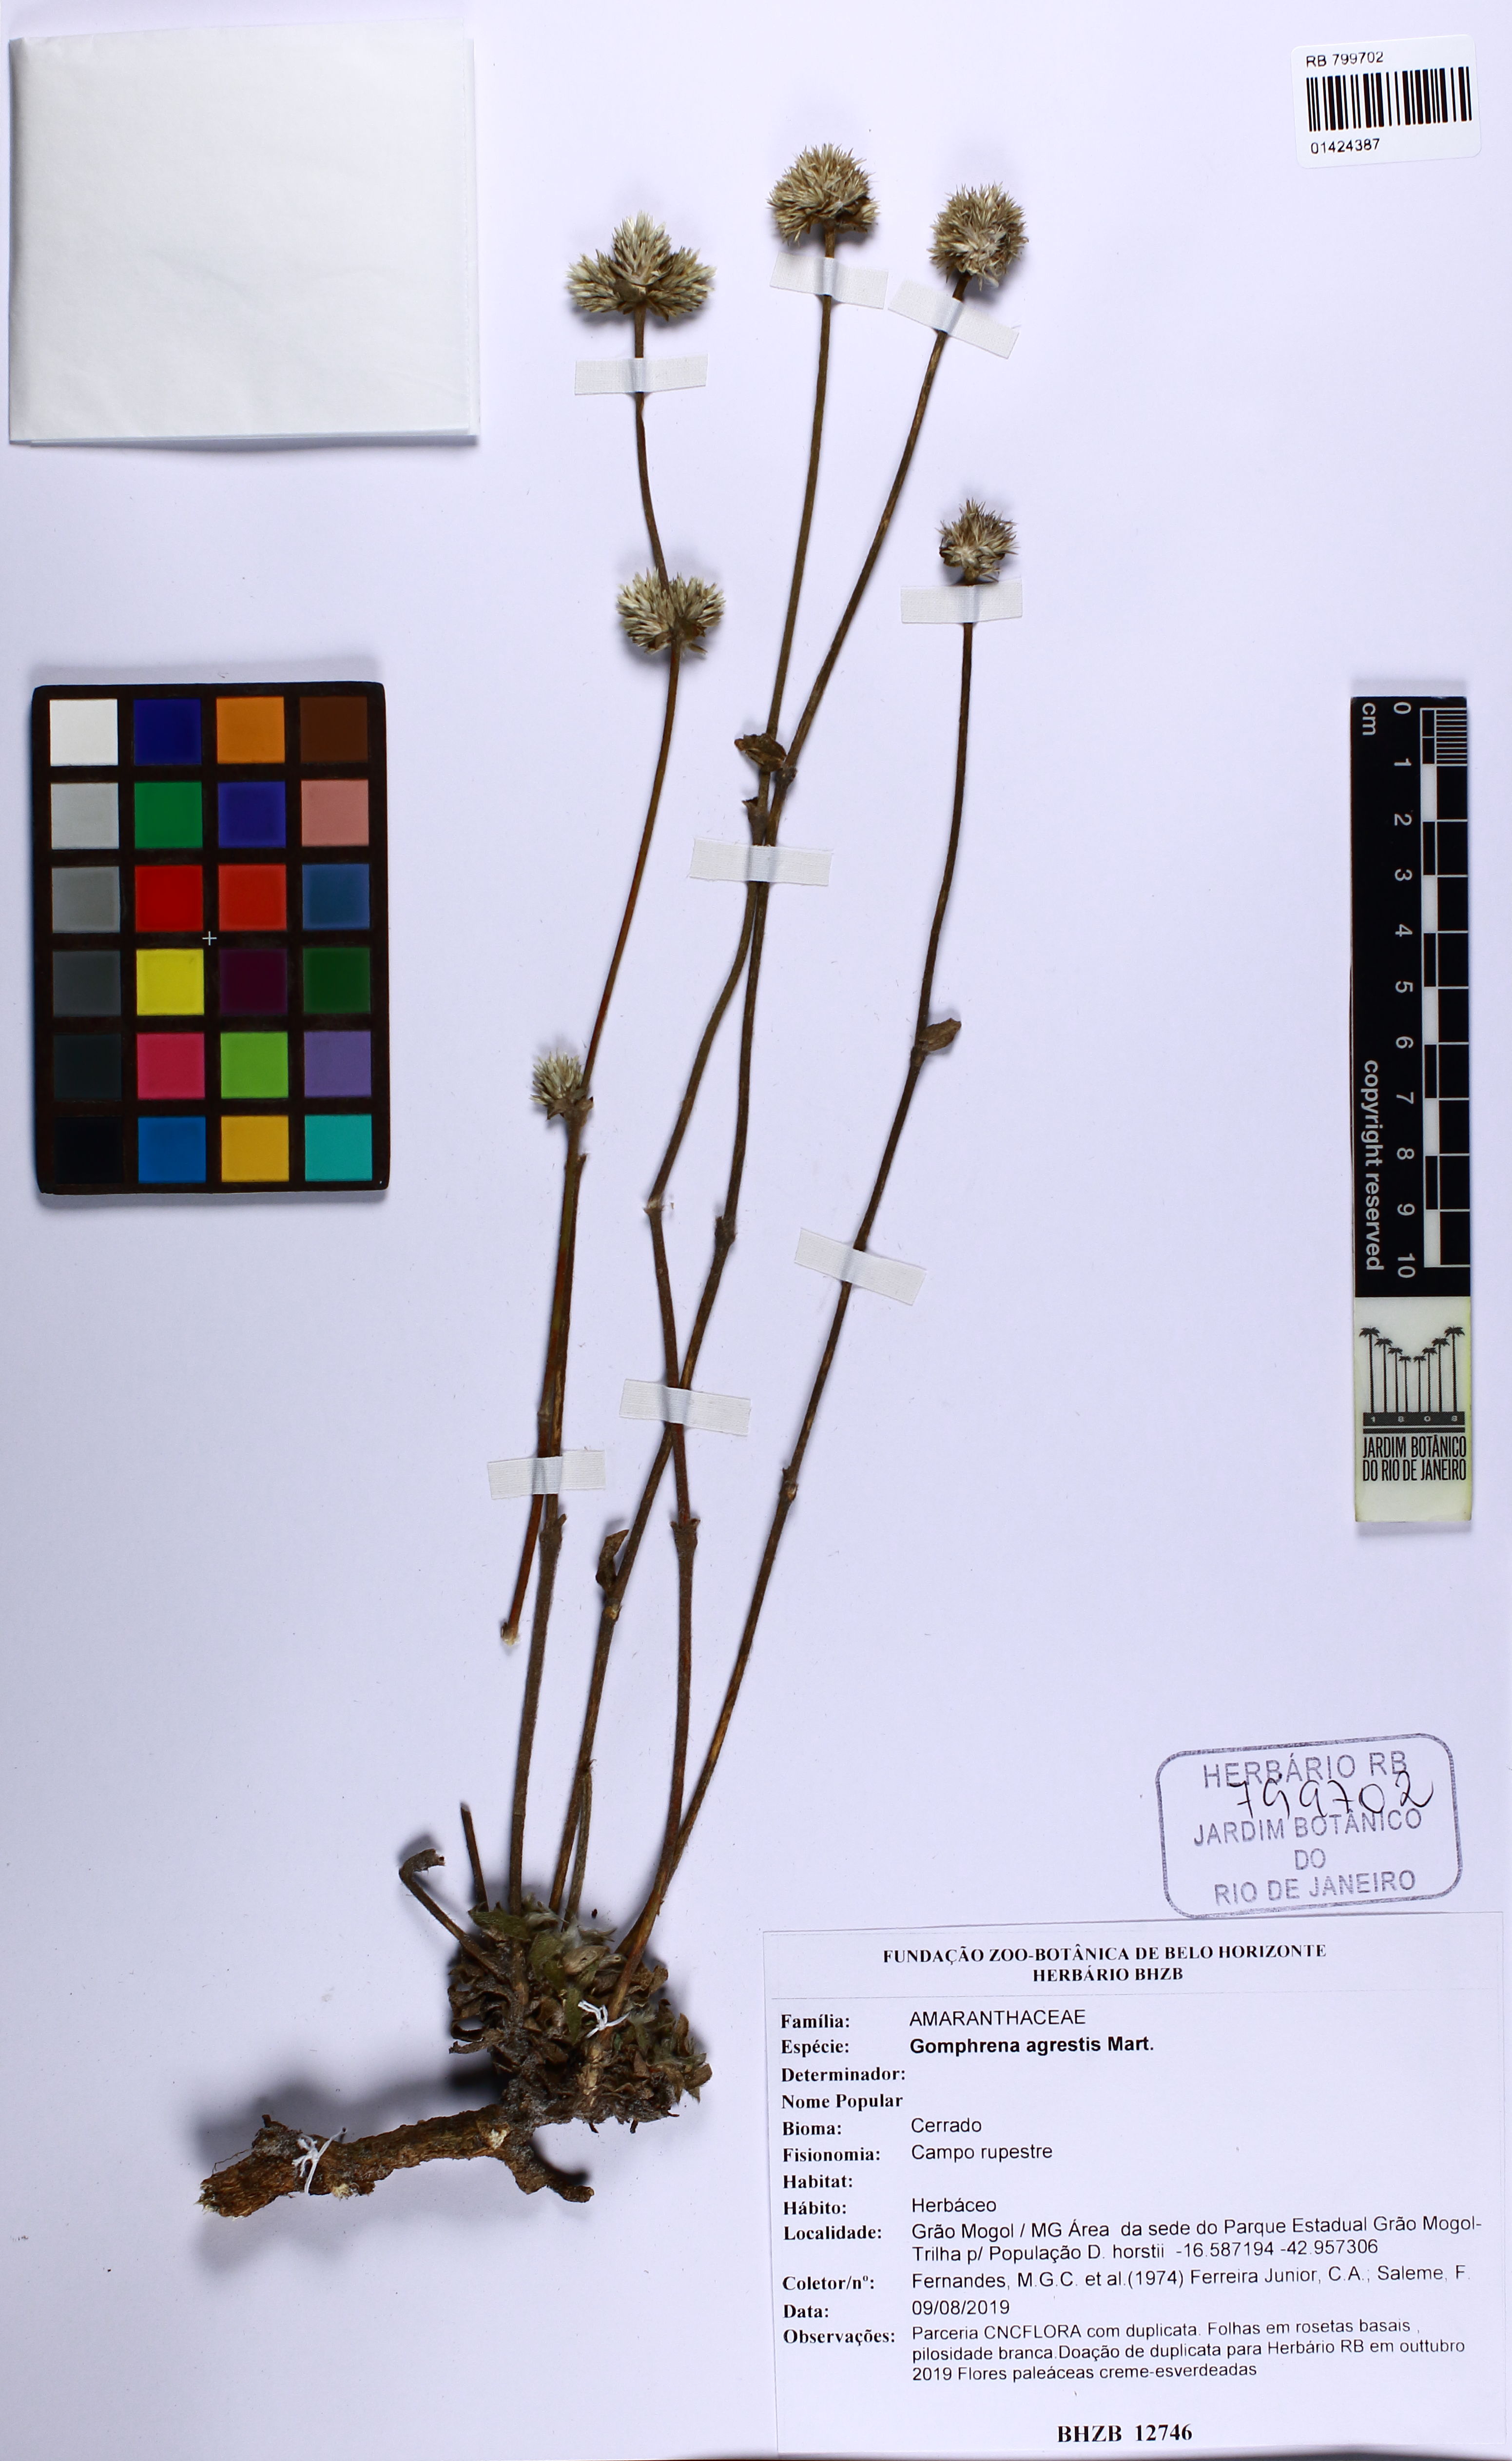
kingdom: Plantae
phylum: Tracheophyta
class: Magnoliopsida
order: Caryophyllales
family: Amaranthaceae
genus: Gomphrena
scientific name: Gomphrena agrestis
